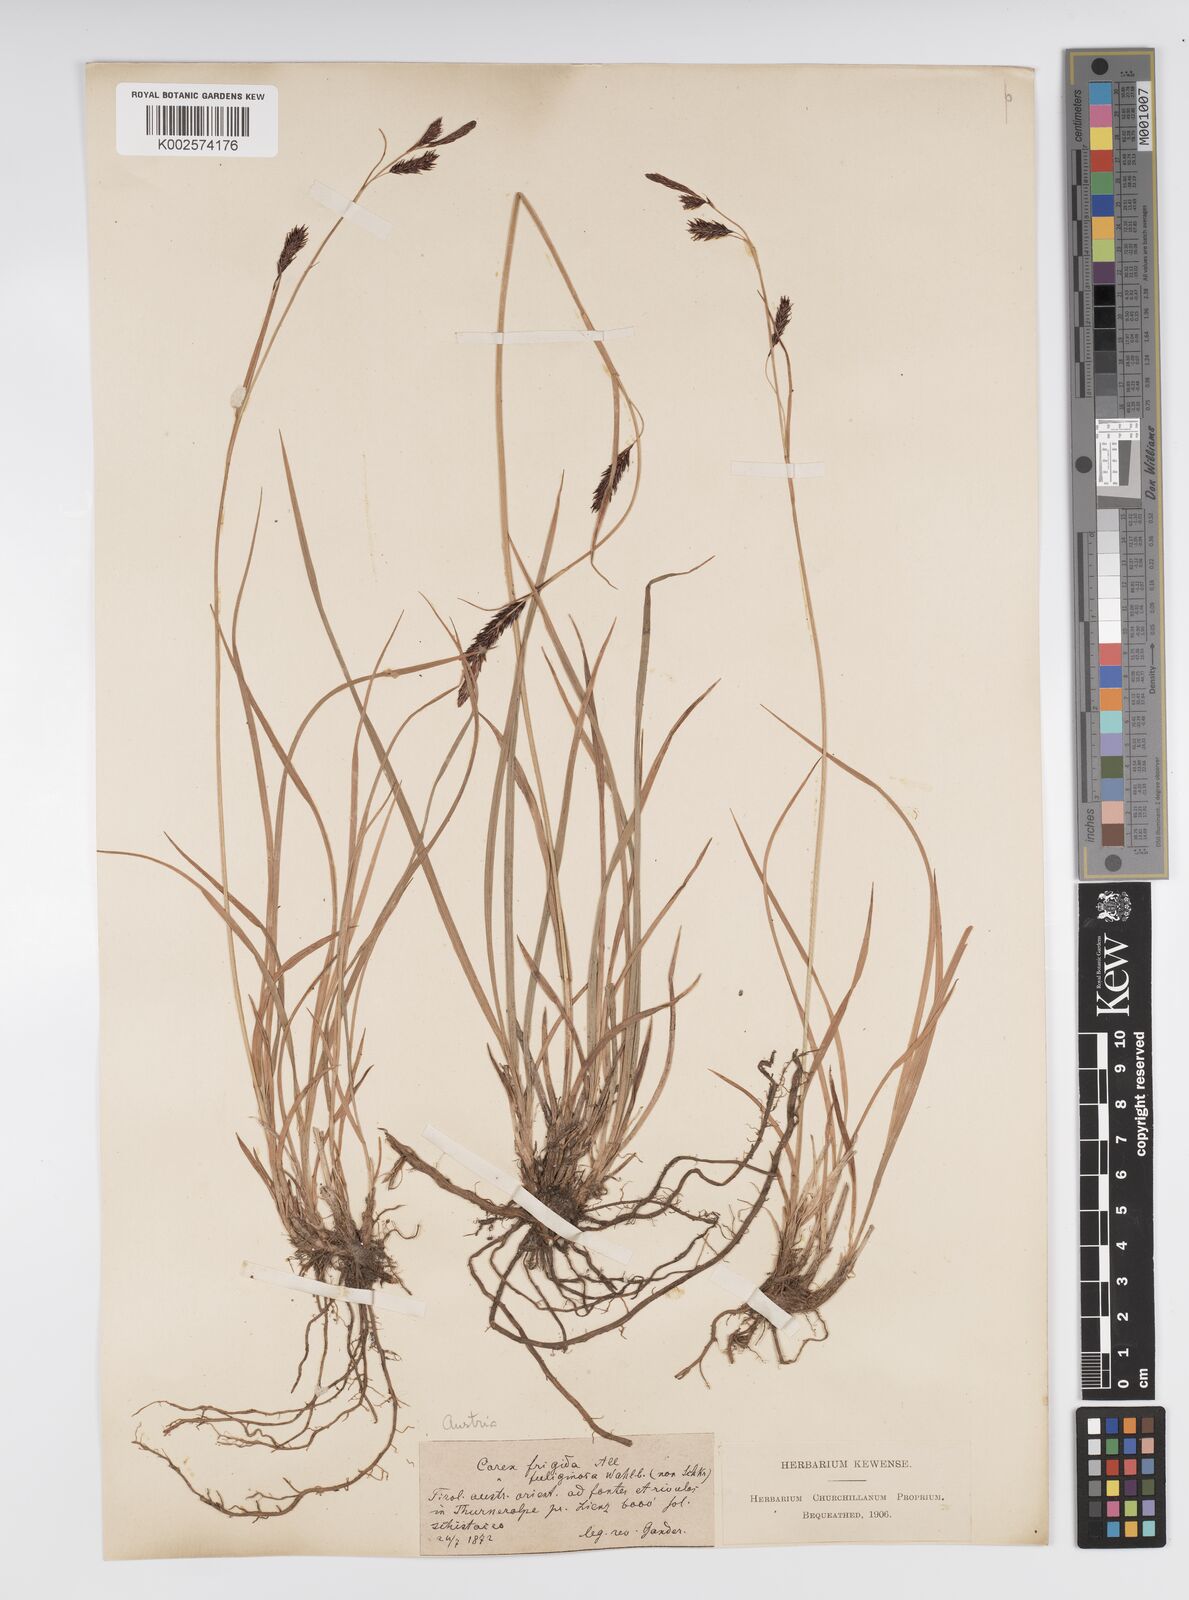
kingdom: Plantae
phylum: Tracheophyta
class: Liliopsida
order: Poales
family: Cyperaceae
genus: Carex
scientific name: Carex frigida
